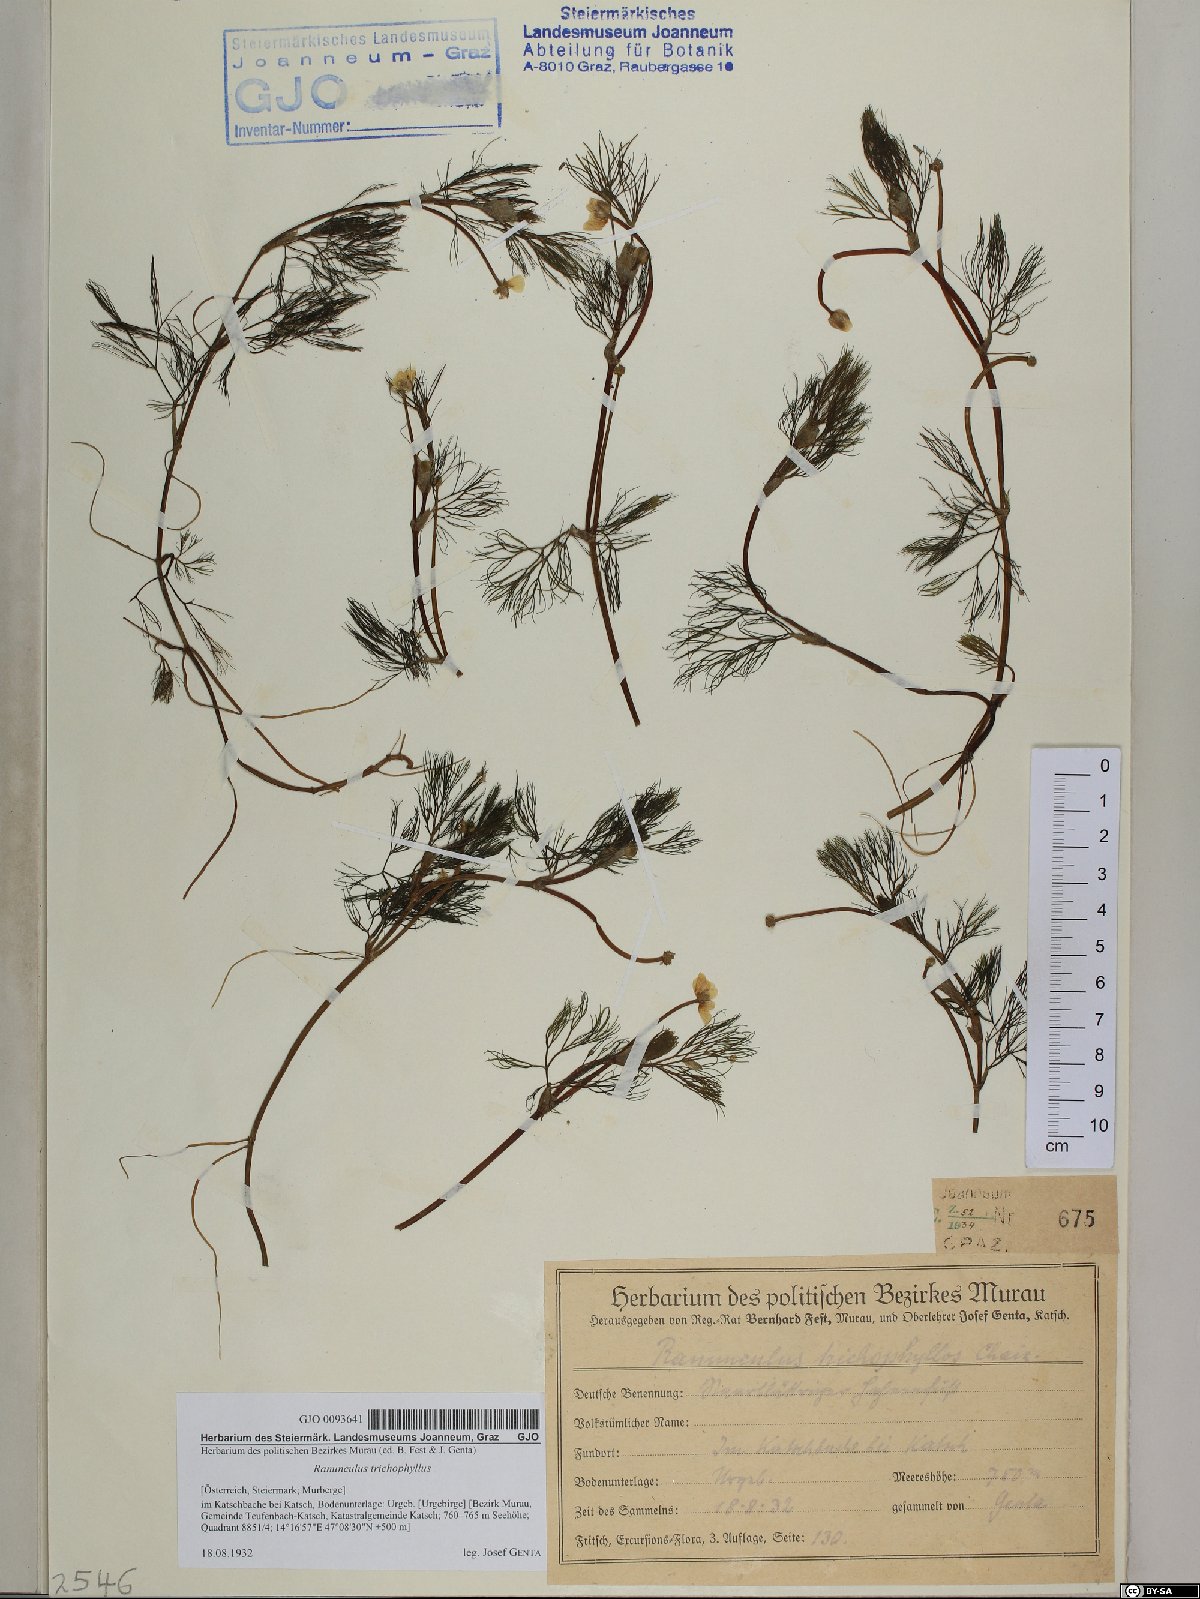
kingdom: Plantae
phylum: Tracheophyta
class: Magnoliopsida
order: Ranunculales
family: Ranunculaceae
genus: Ranunculus
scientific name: Ranunculus trichophyllus
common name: Thread-leaved water-crowfoot
